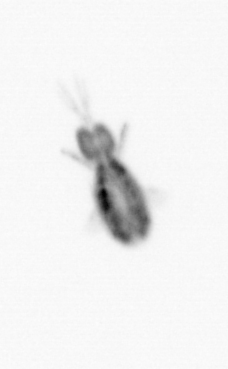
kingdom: Animalia
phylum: Arthropoda
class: Copepoda
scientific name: Copepoda
